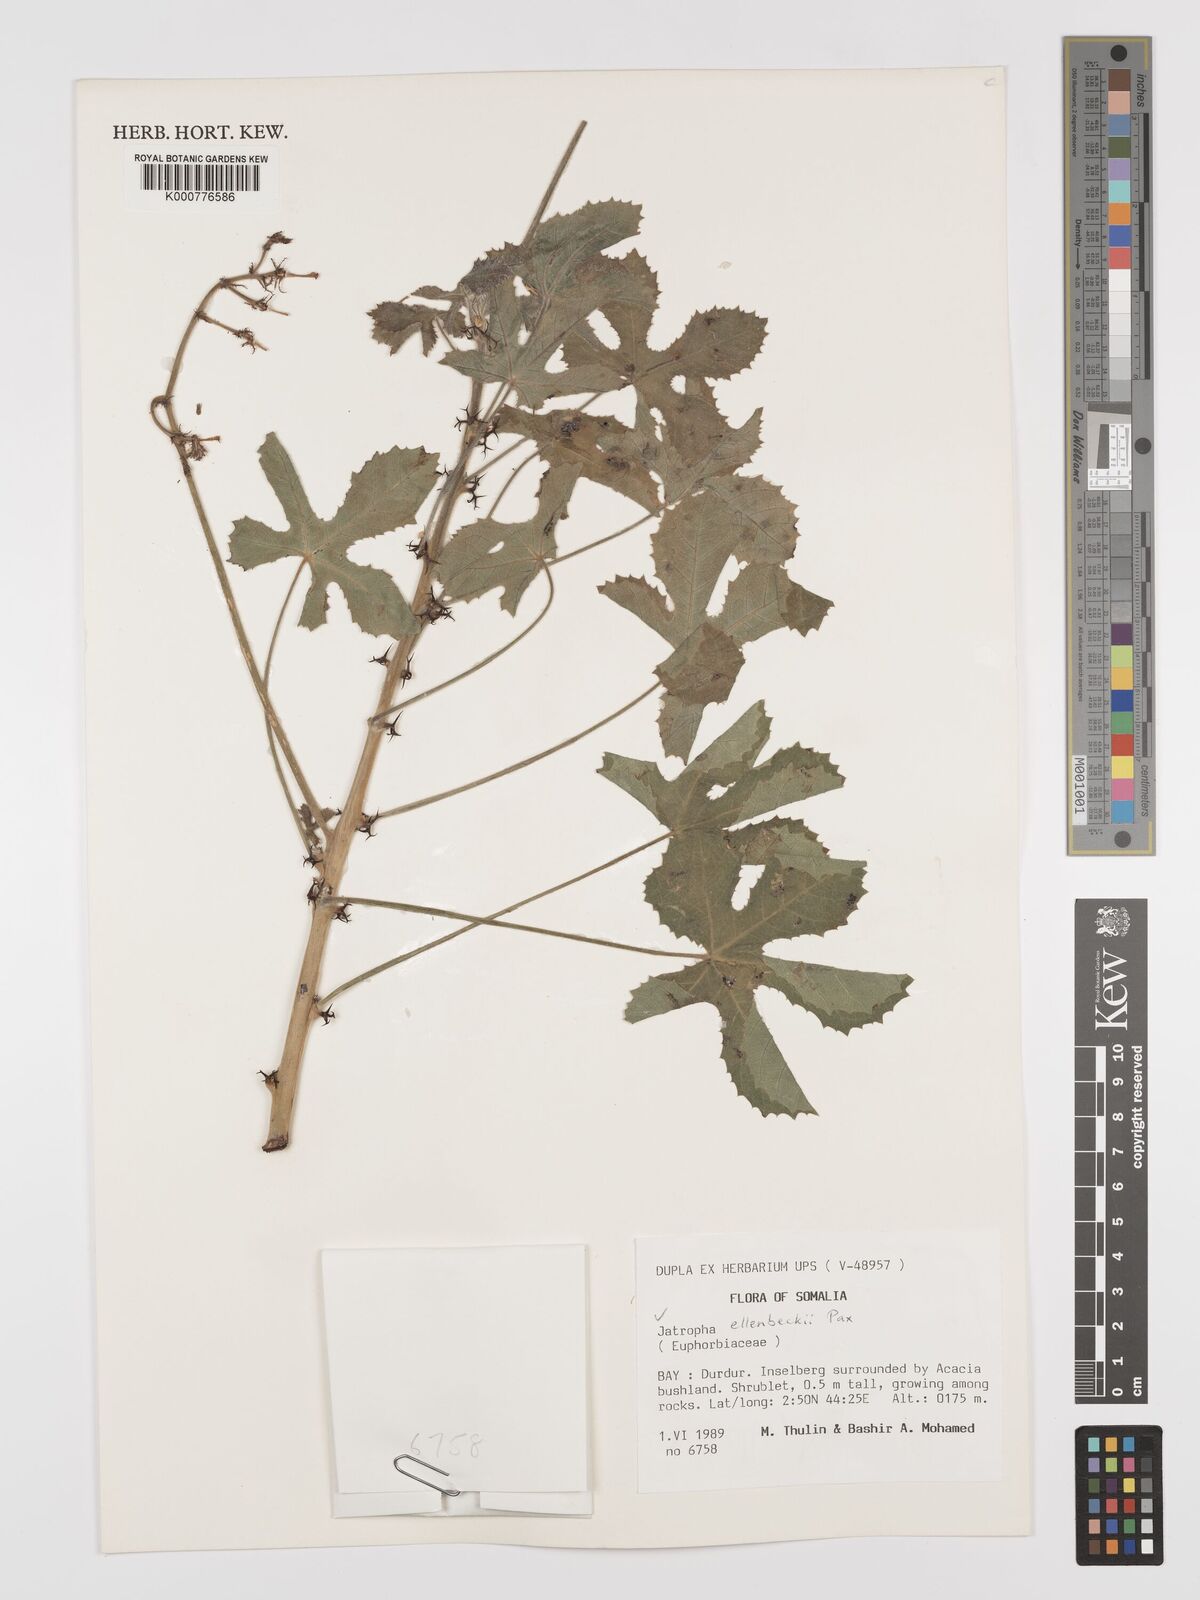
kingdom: Plantae
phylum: Tracheophyta
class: Magnoliopsida
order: Malpighiales
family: Euphorbiaceae
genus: Jatropha
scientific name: Jatropha ellenbeckii
